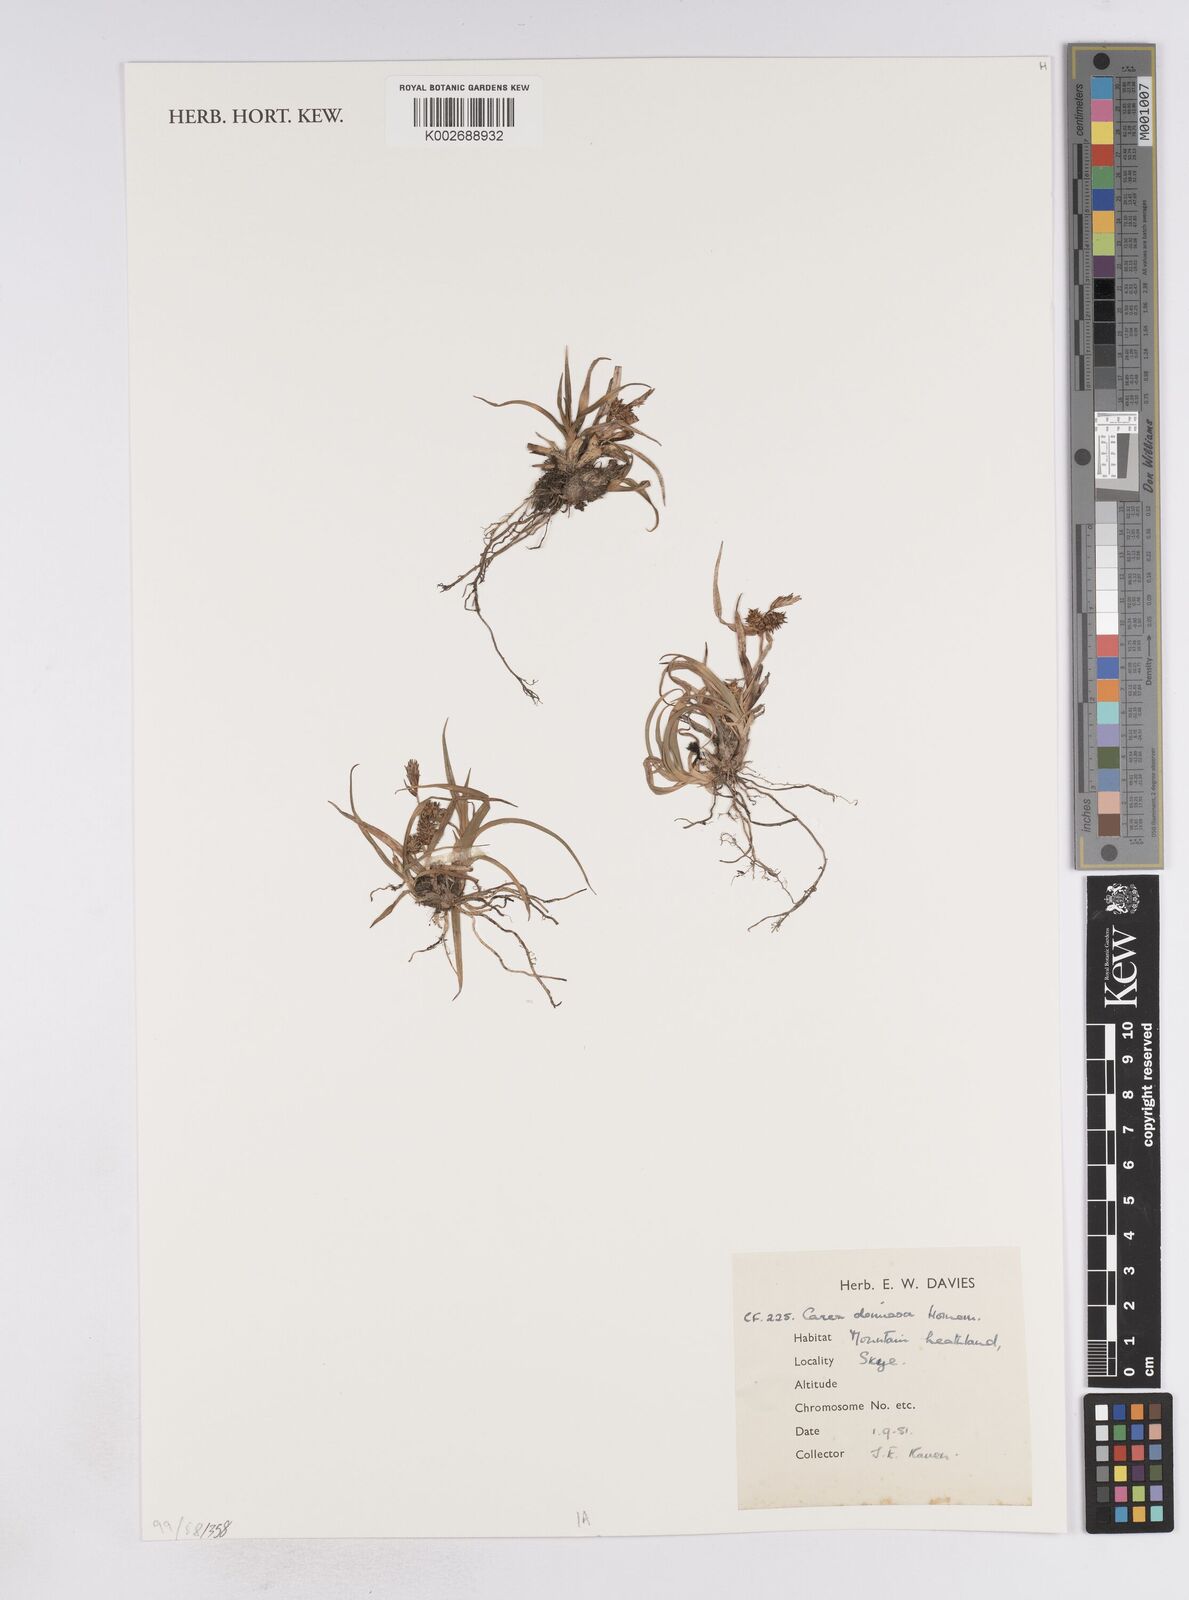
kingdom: Plantae
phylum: Tracheophyta
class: Liliopsida
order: Poales
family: Cyperaceae
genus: Carex
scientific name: Carex demissa
